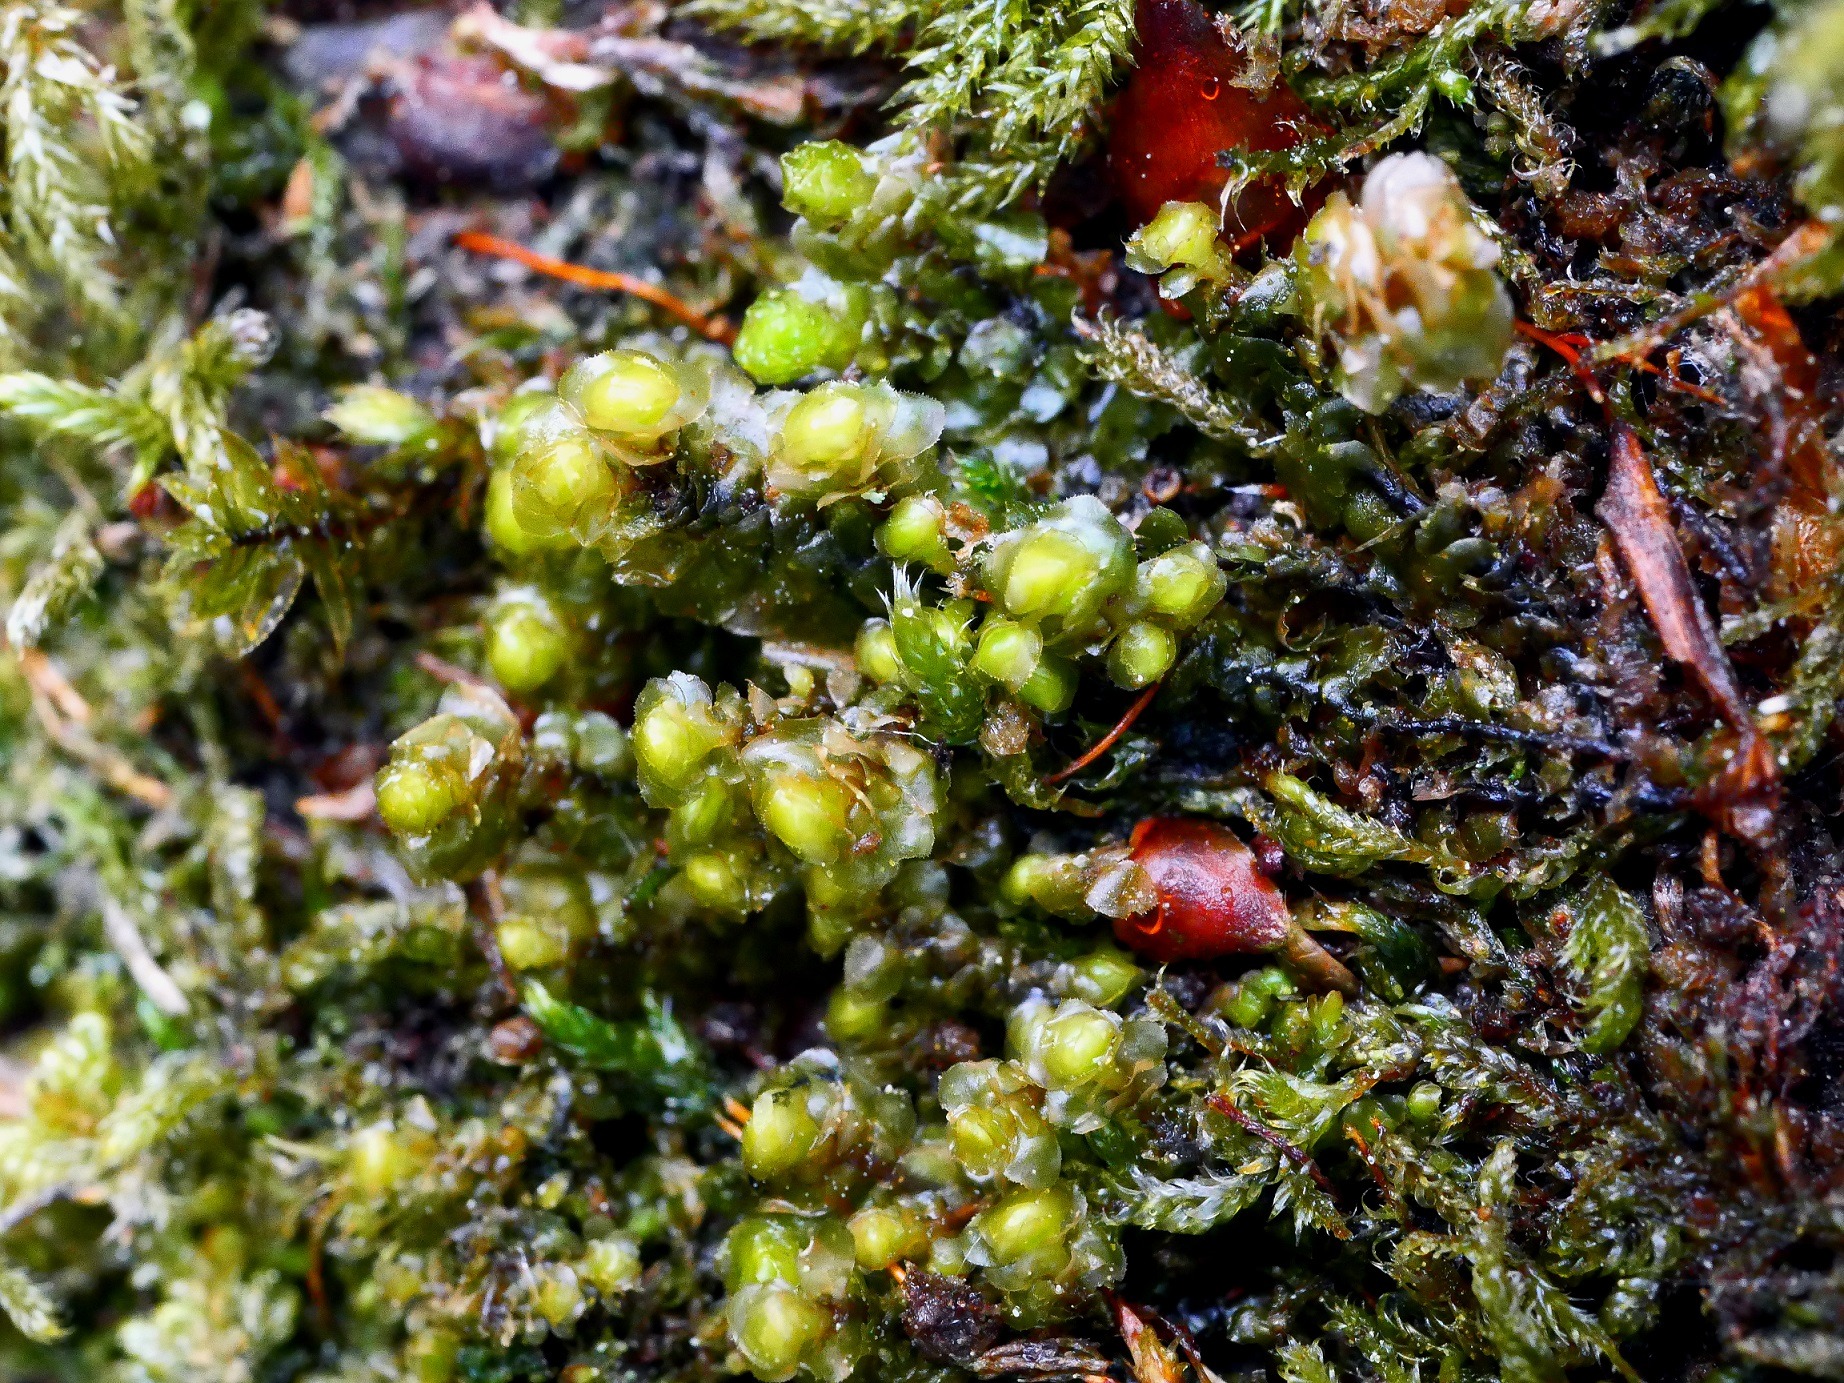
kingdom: Plantae
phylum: Marchantiophyta
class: Jungermanniopsida
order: Jungermanniales
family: Scapaniaceae
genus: Scapania
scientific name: Scapania nemorea
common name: Lund-tveblad
